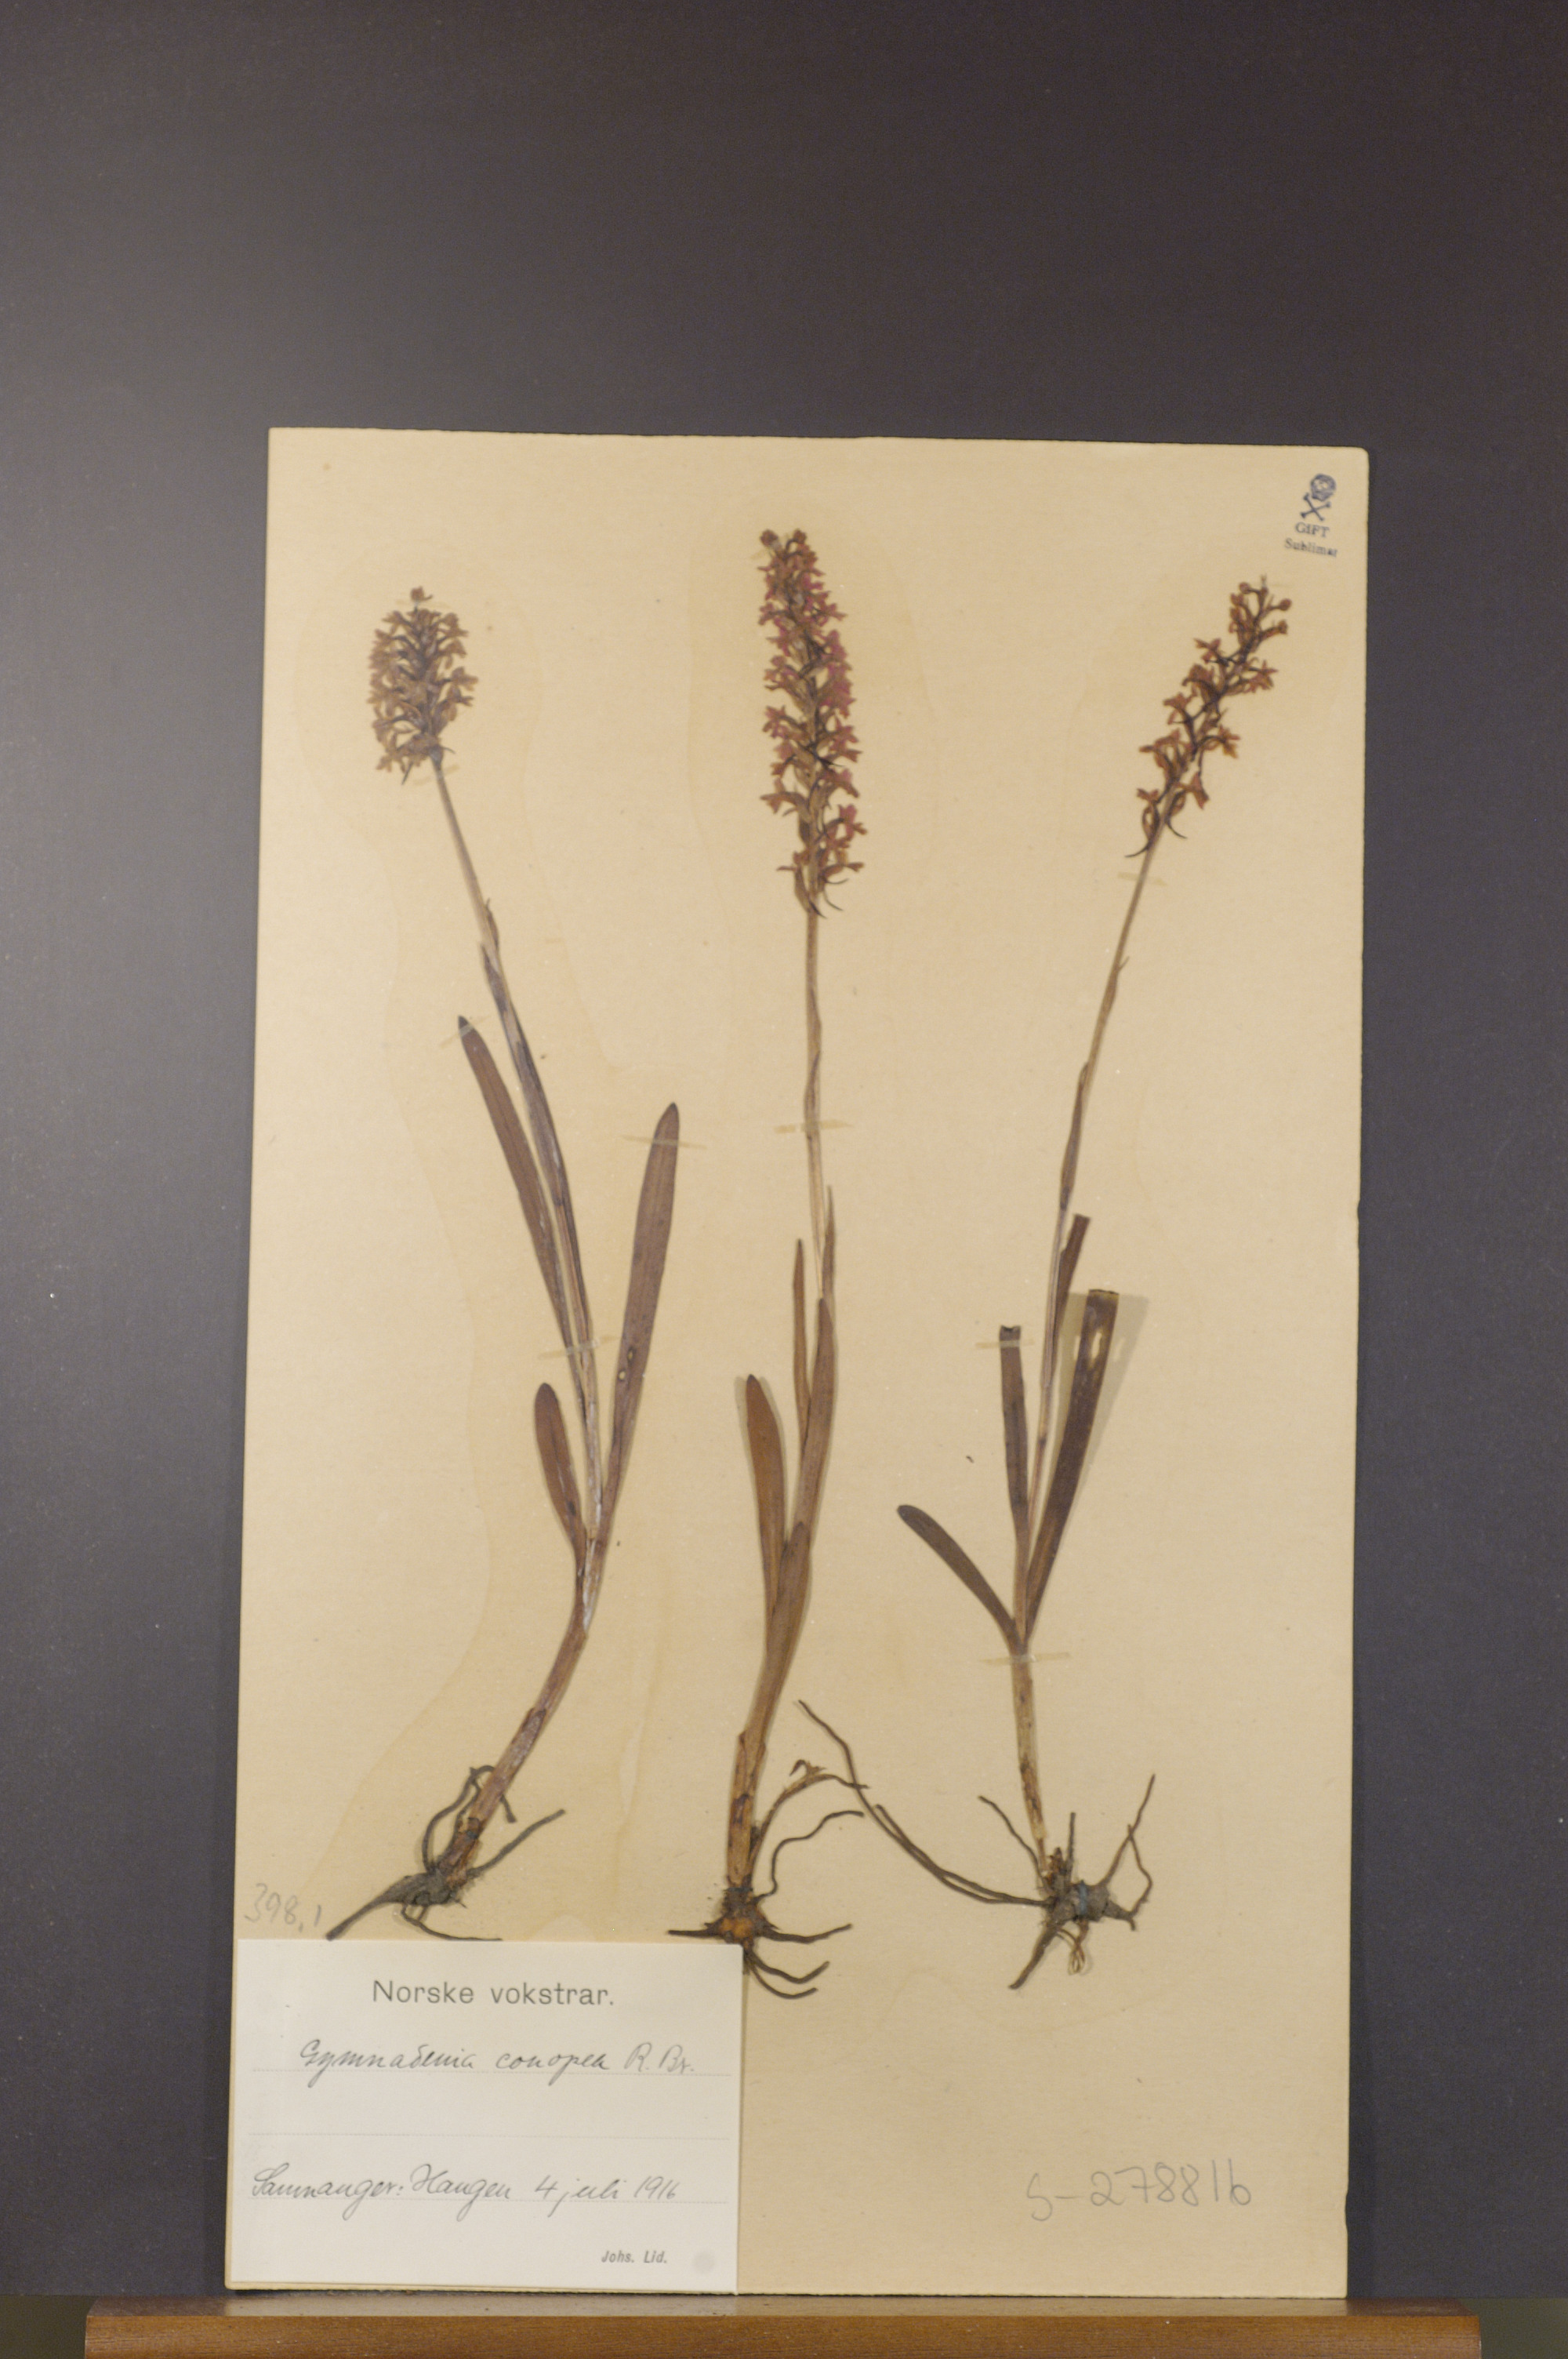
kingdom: Plantae
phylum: Tracheophyta
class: Liliopsida
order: Asparagales
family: Orchidaceae
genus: Gymnadenia
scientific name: Gymnadenia conopsea
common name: Fragrant orchid
